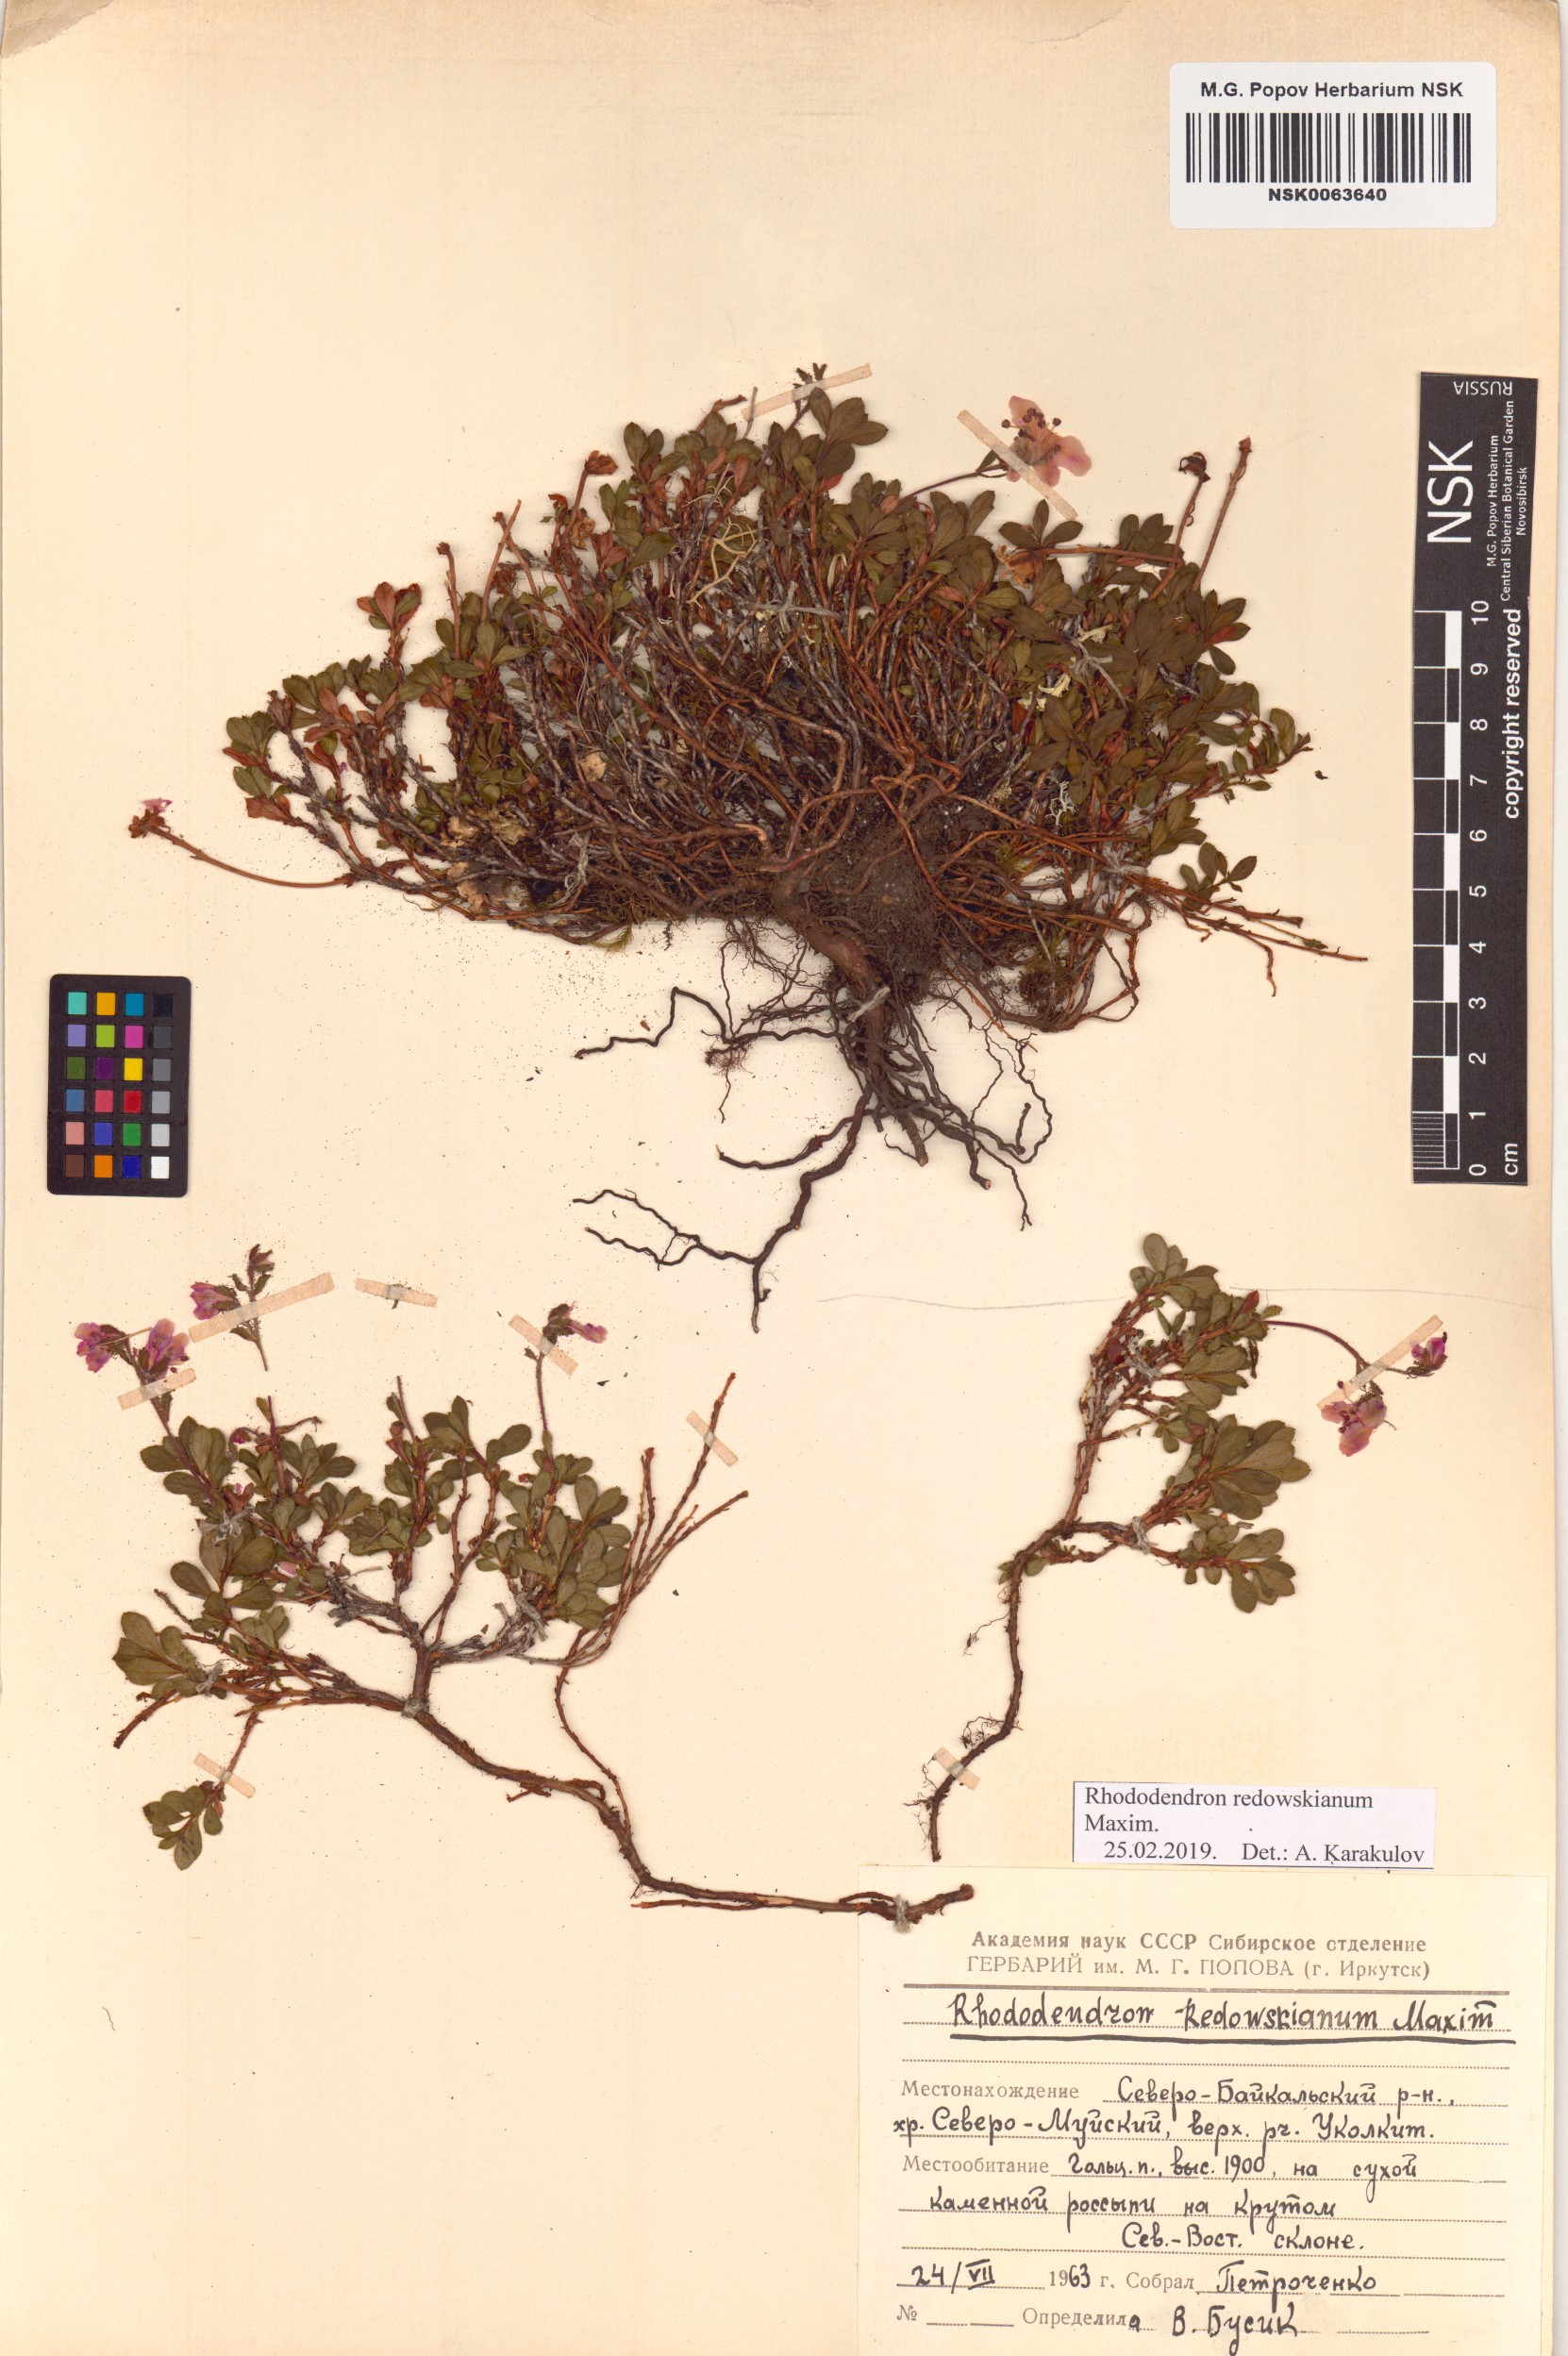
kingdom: Plantae
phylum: Tracheophyta
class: Magnoliopsida
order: Ericales
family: Ericaceae
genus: Rhododendron
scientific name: Rhododendron redowskianum
